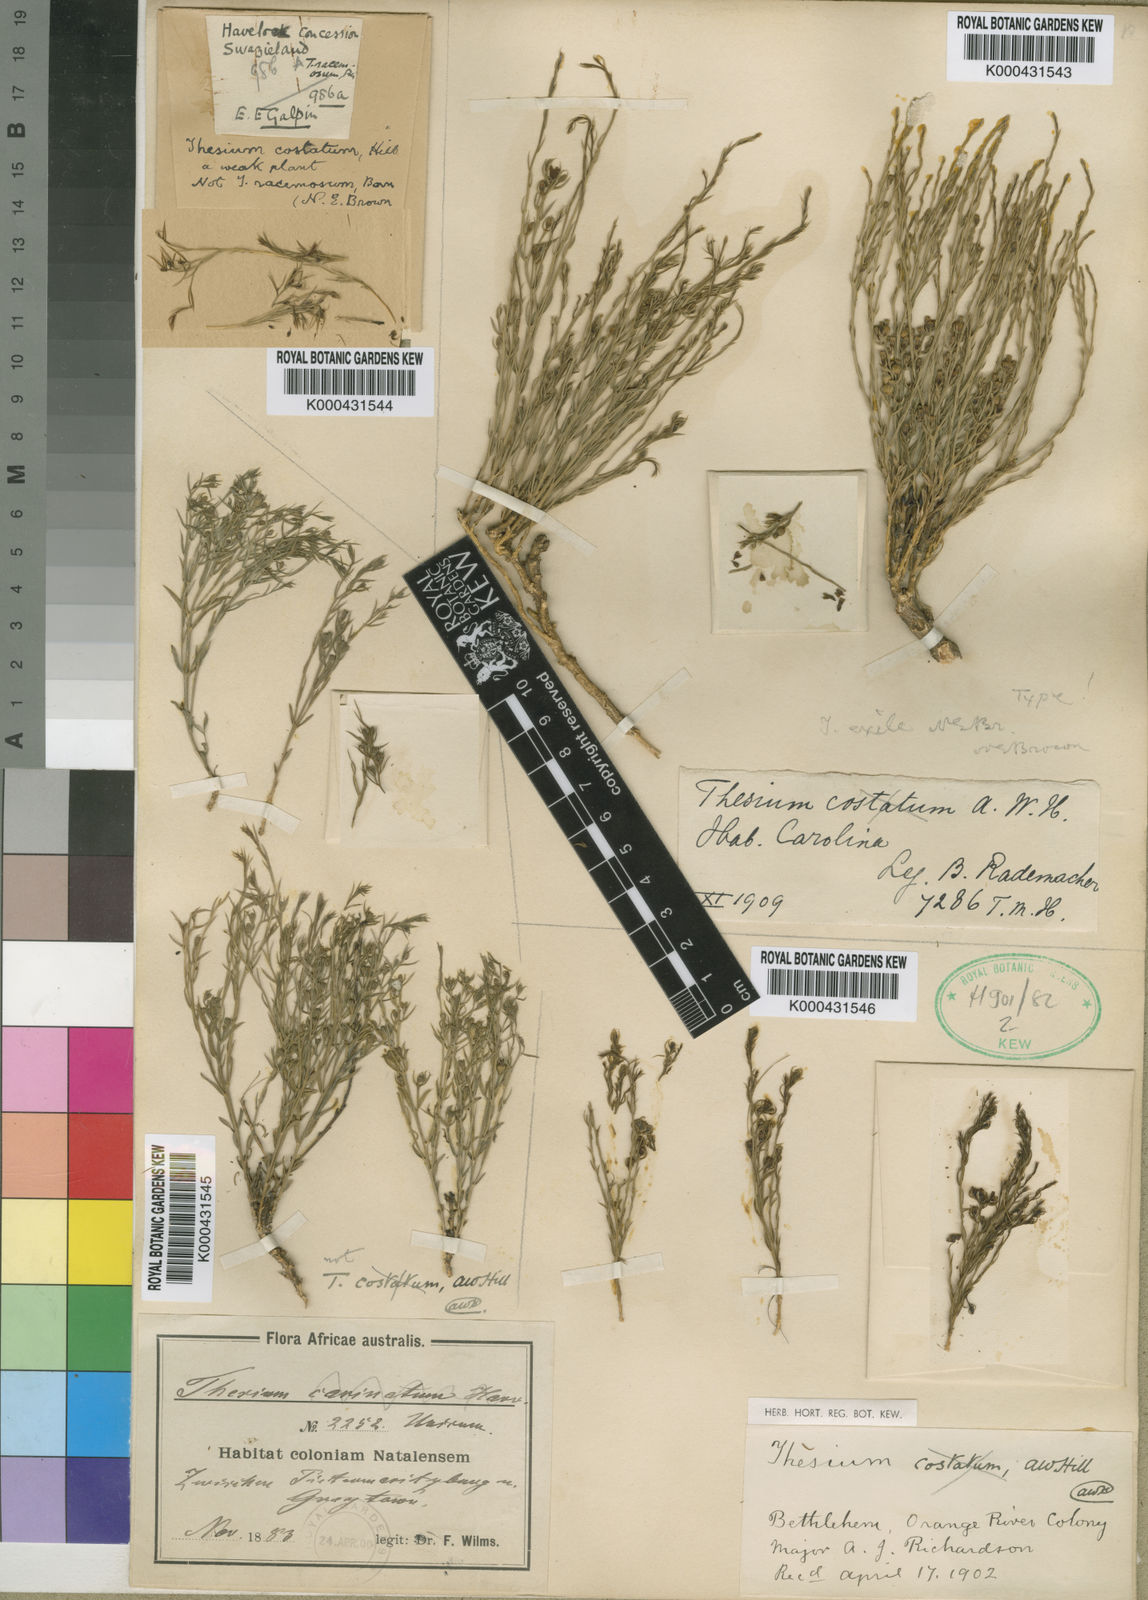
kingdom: Plantae
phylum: Tracheophyta
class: Magnoliopsida
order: Santalales
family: Thesiaceae
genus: Thesium
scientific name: Thesium exile
